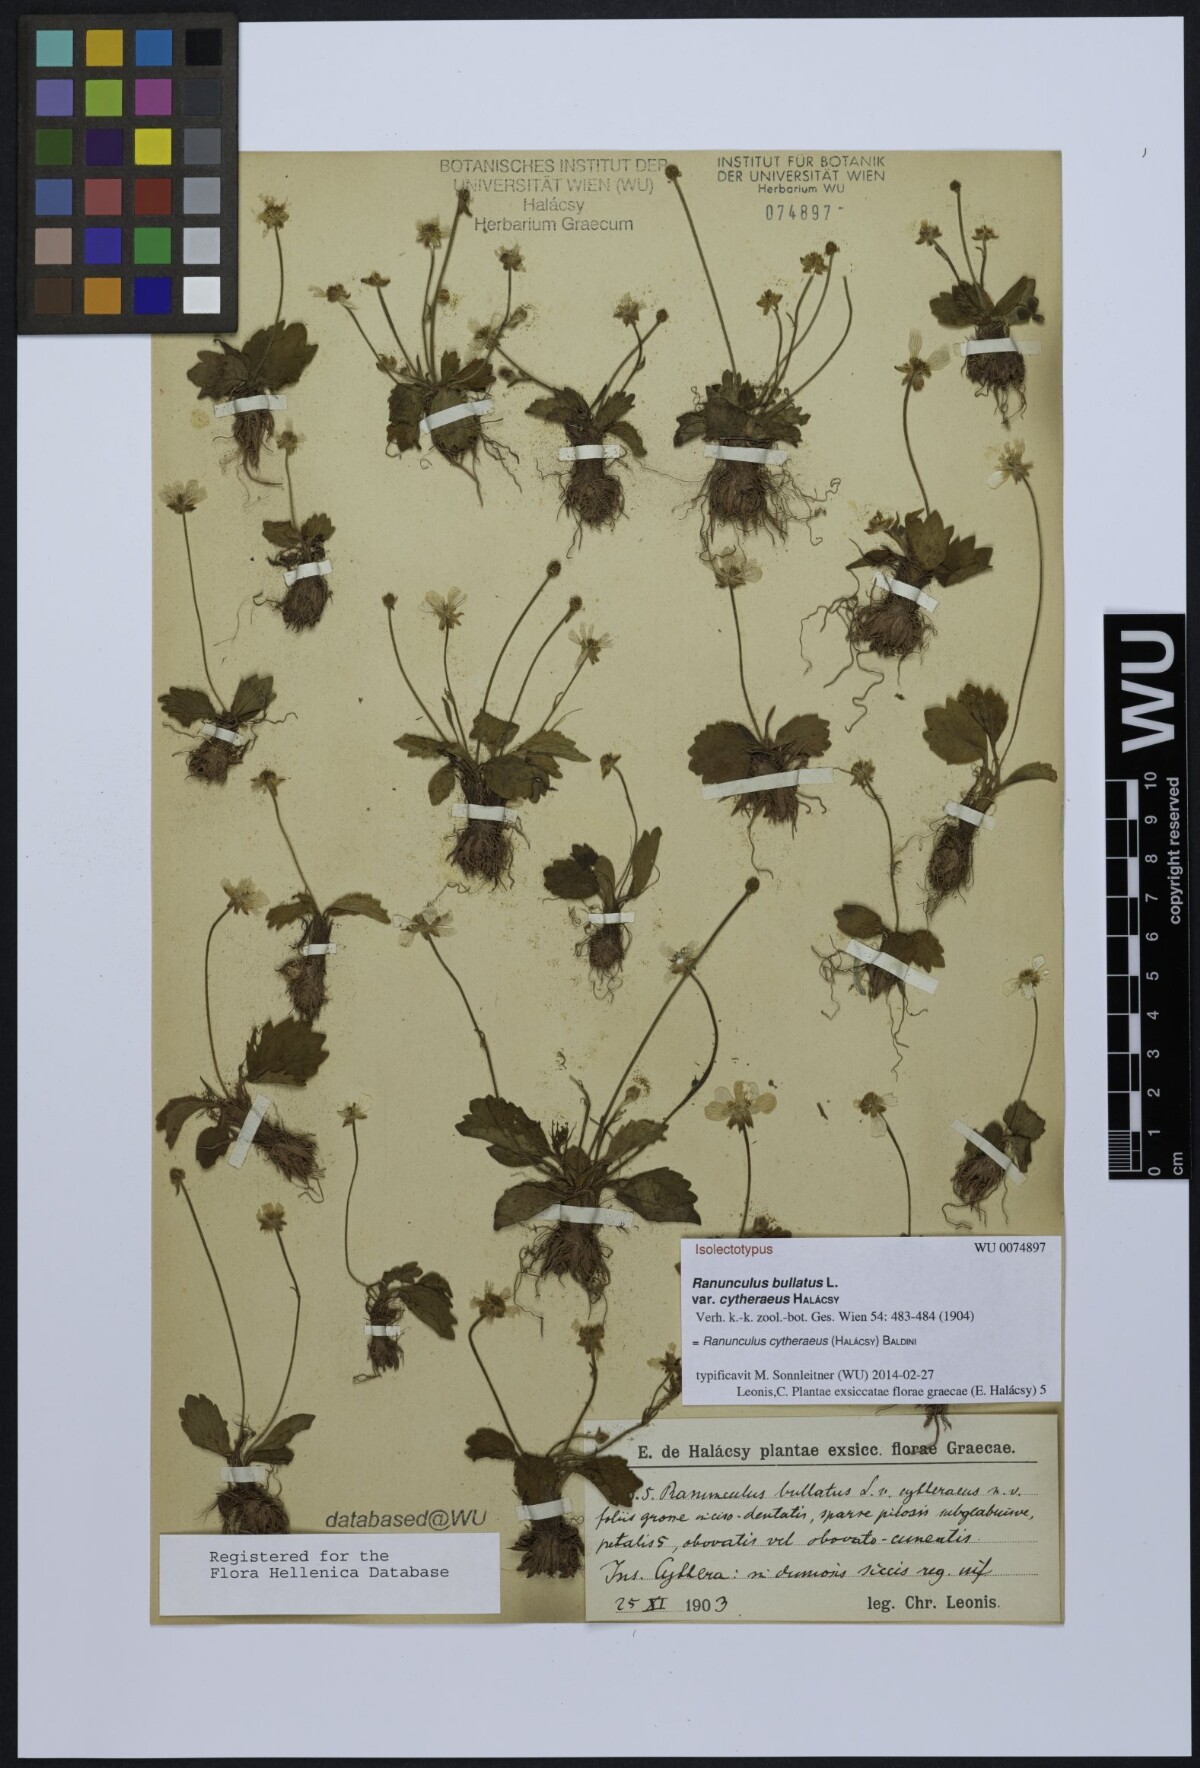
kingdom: Plantae
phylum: Tracheophyta
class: Magnoliopsida
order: Ranunculales
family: Ranunculaceae
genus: Ranunculus
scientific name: Ranunculus cytheraeus
